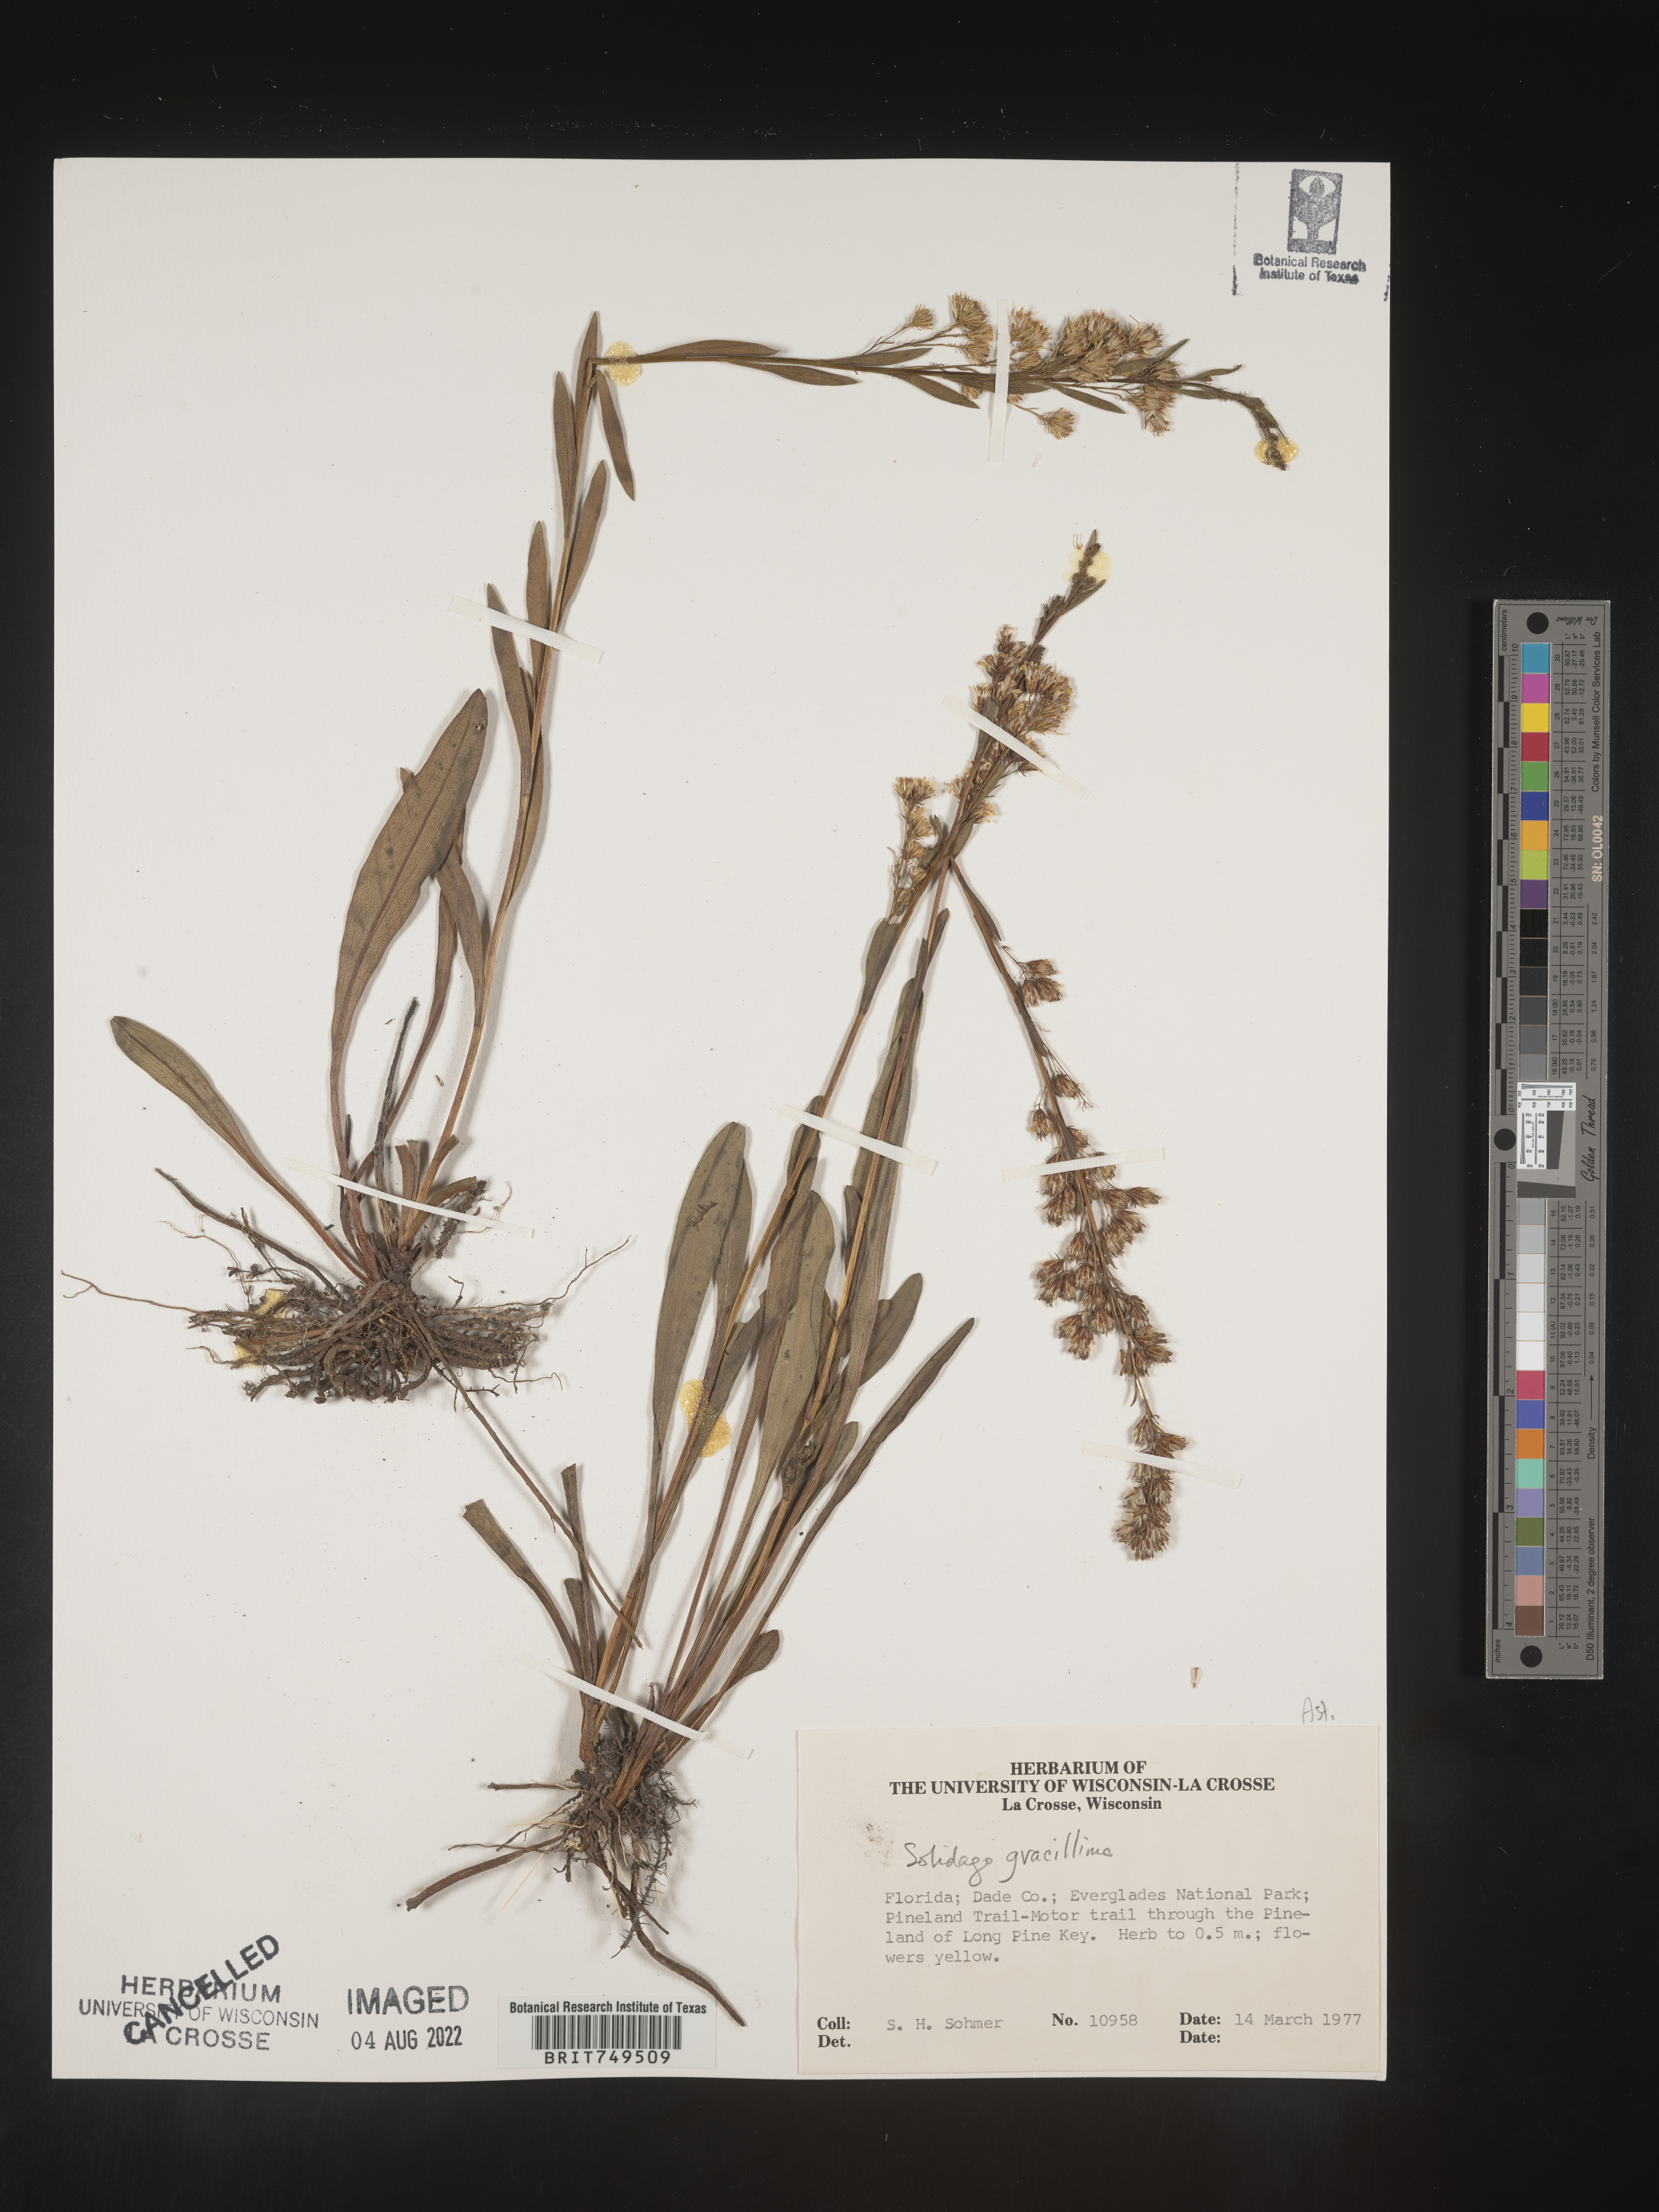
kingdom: Plantae
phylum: Tracheophyta
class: Magnoliopsida
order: Asterales
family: Asteraceae
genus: Solidago
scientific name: Solidago stricta
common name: Pine barren bog goldenrod
